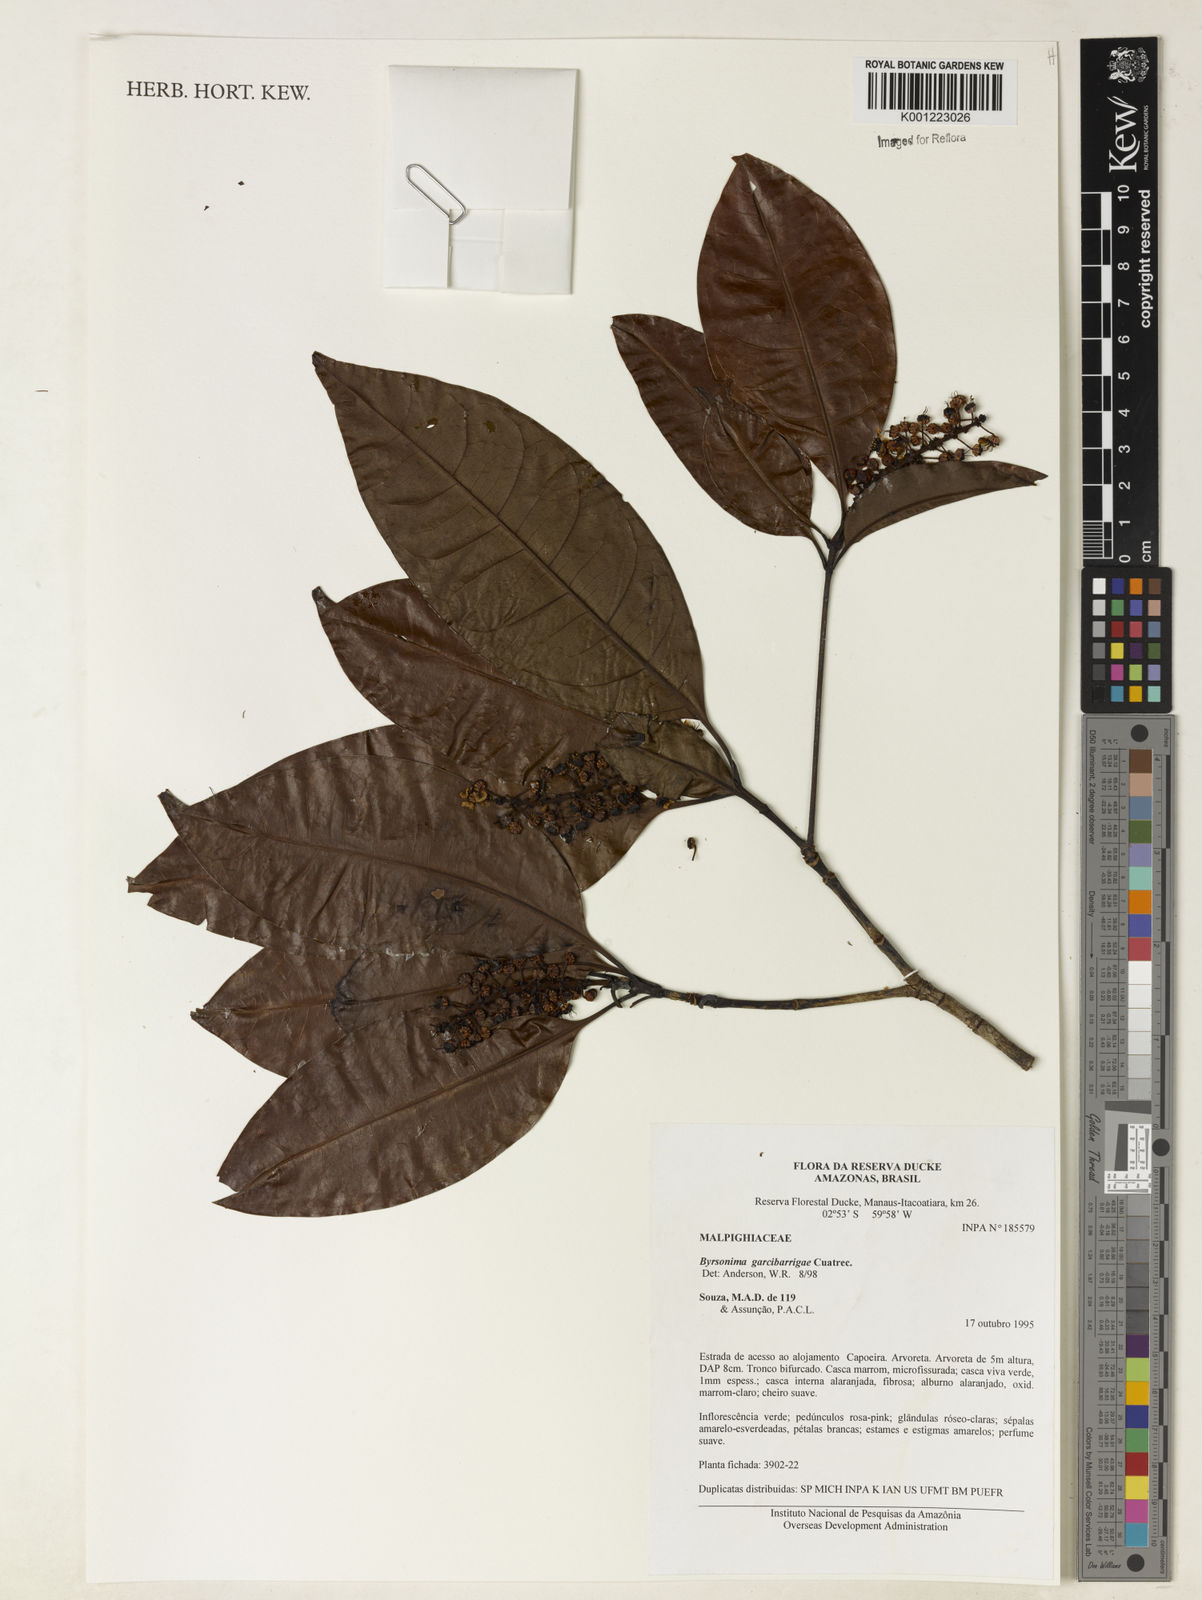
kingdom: Plantae
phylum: Tracheophyta
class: Magnoliopsida
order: Malpighiales
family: Malpighiaceae
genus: Byrsonima
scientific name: Byrsonima garcibarrigae
